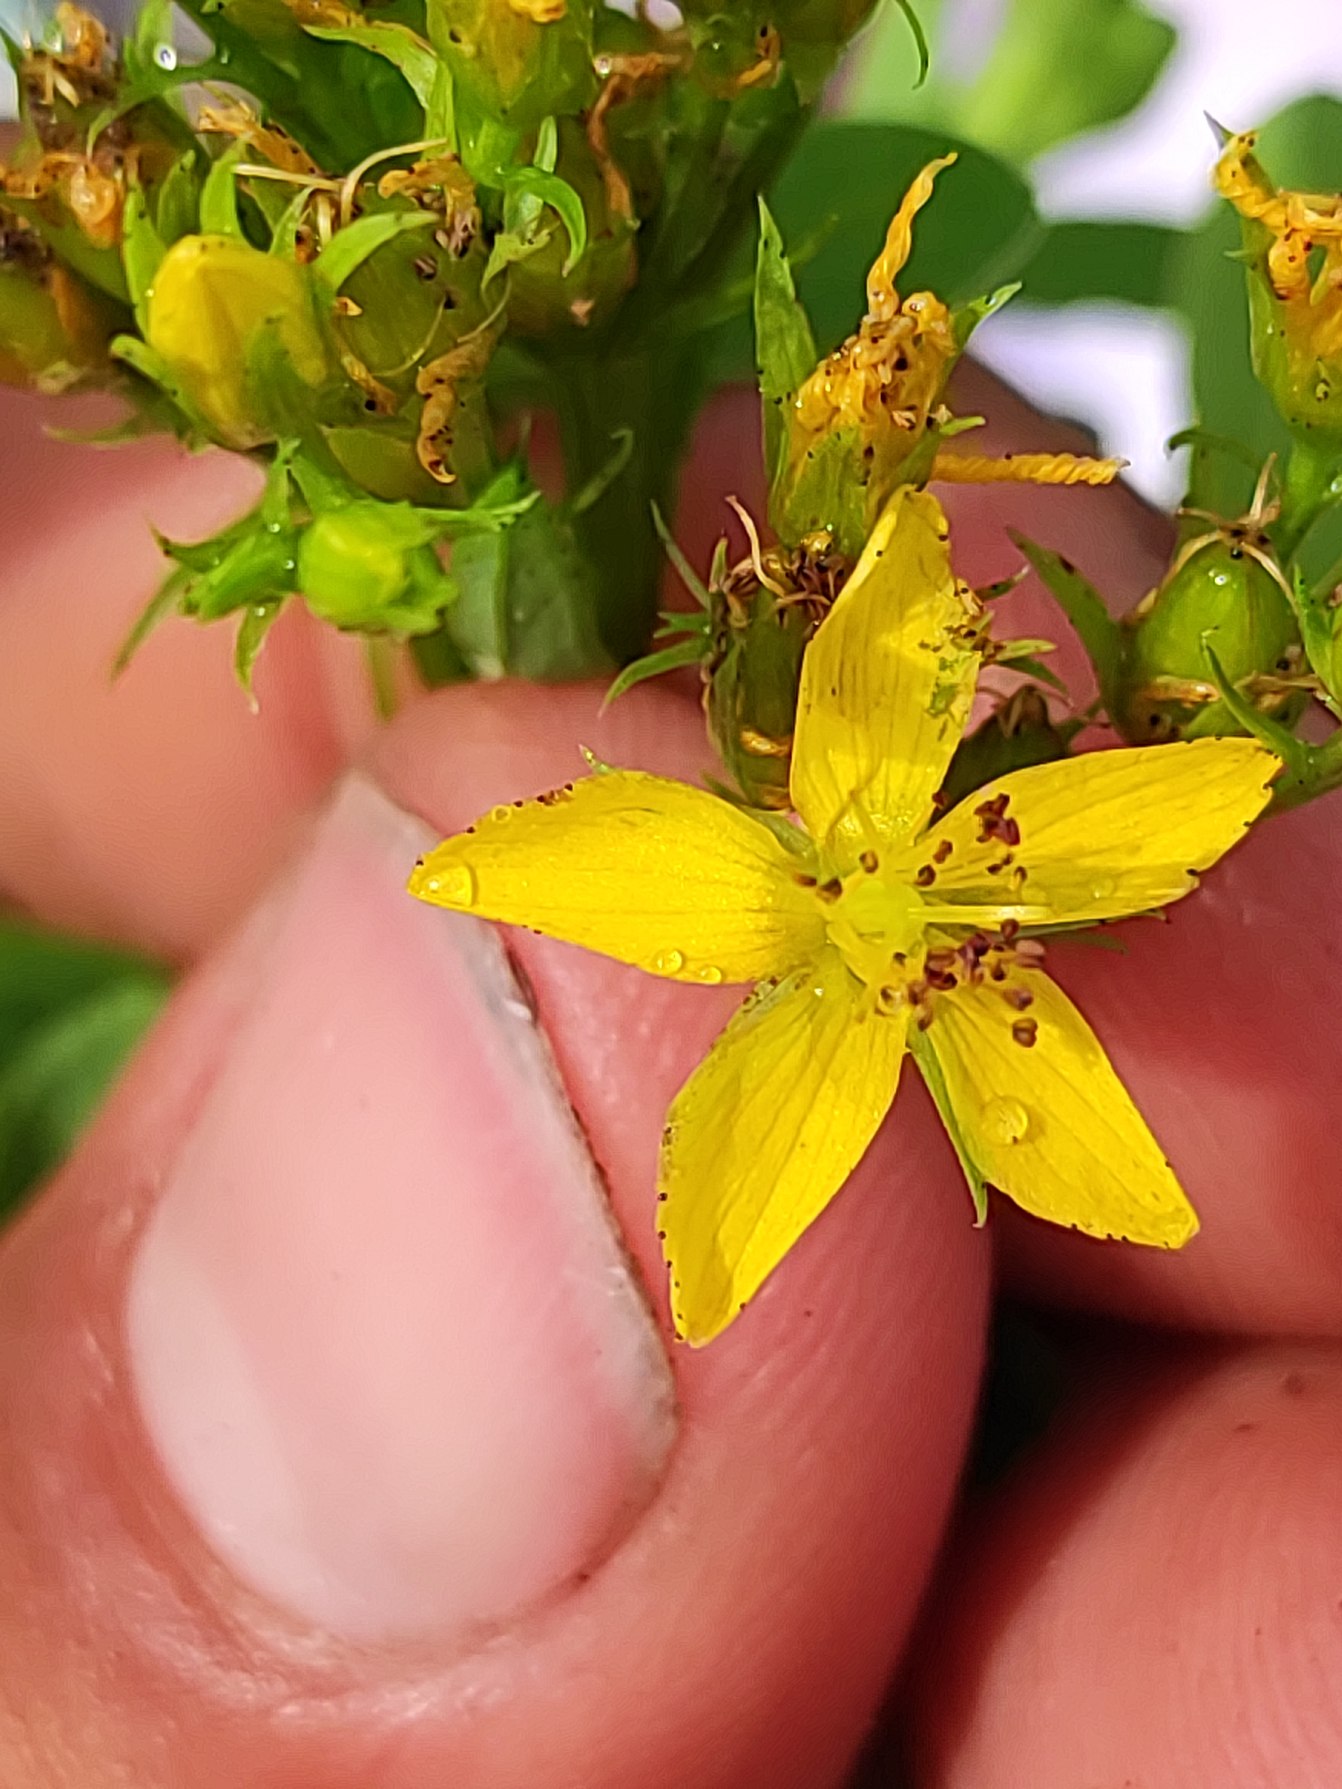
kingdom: Plantae
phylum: Tracheophyta
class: Magnoliopsida
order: Malpighiales
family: Hypericaceae
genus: Hypericum
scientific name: Hypericum tetrapterum
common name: Vinget perikon
